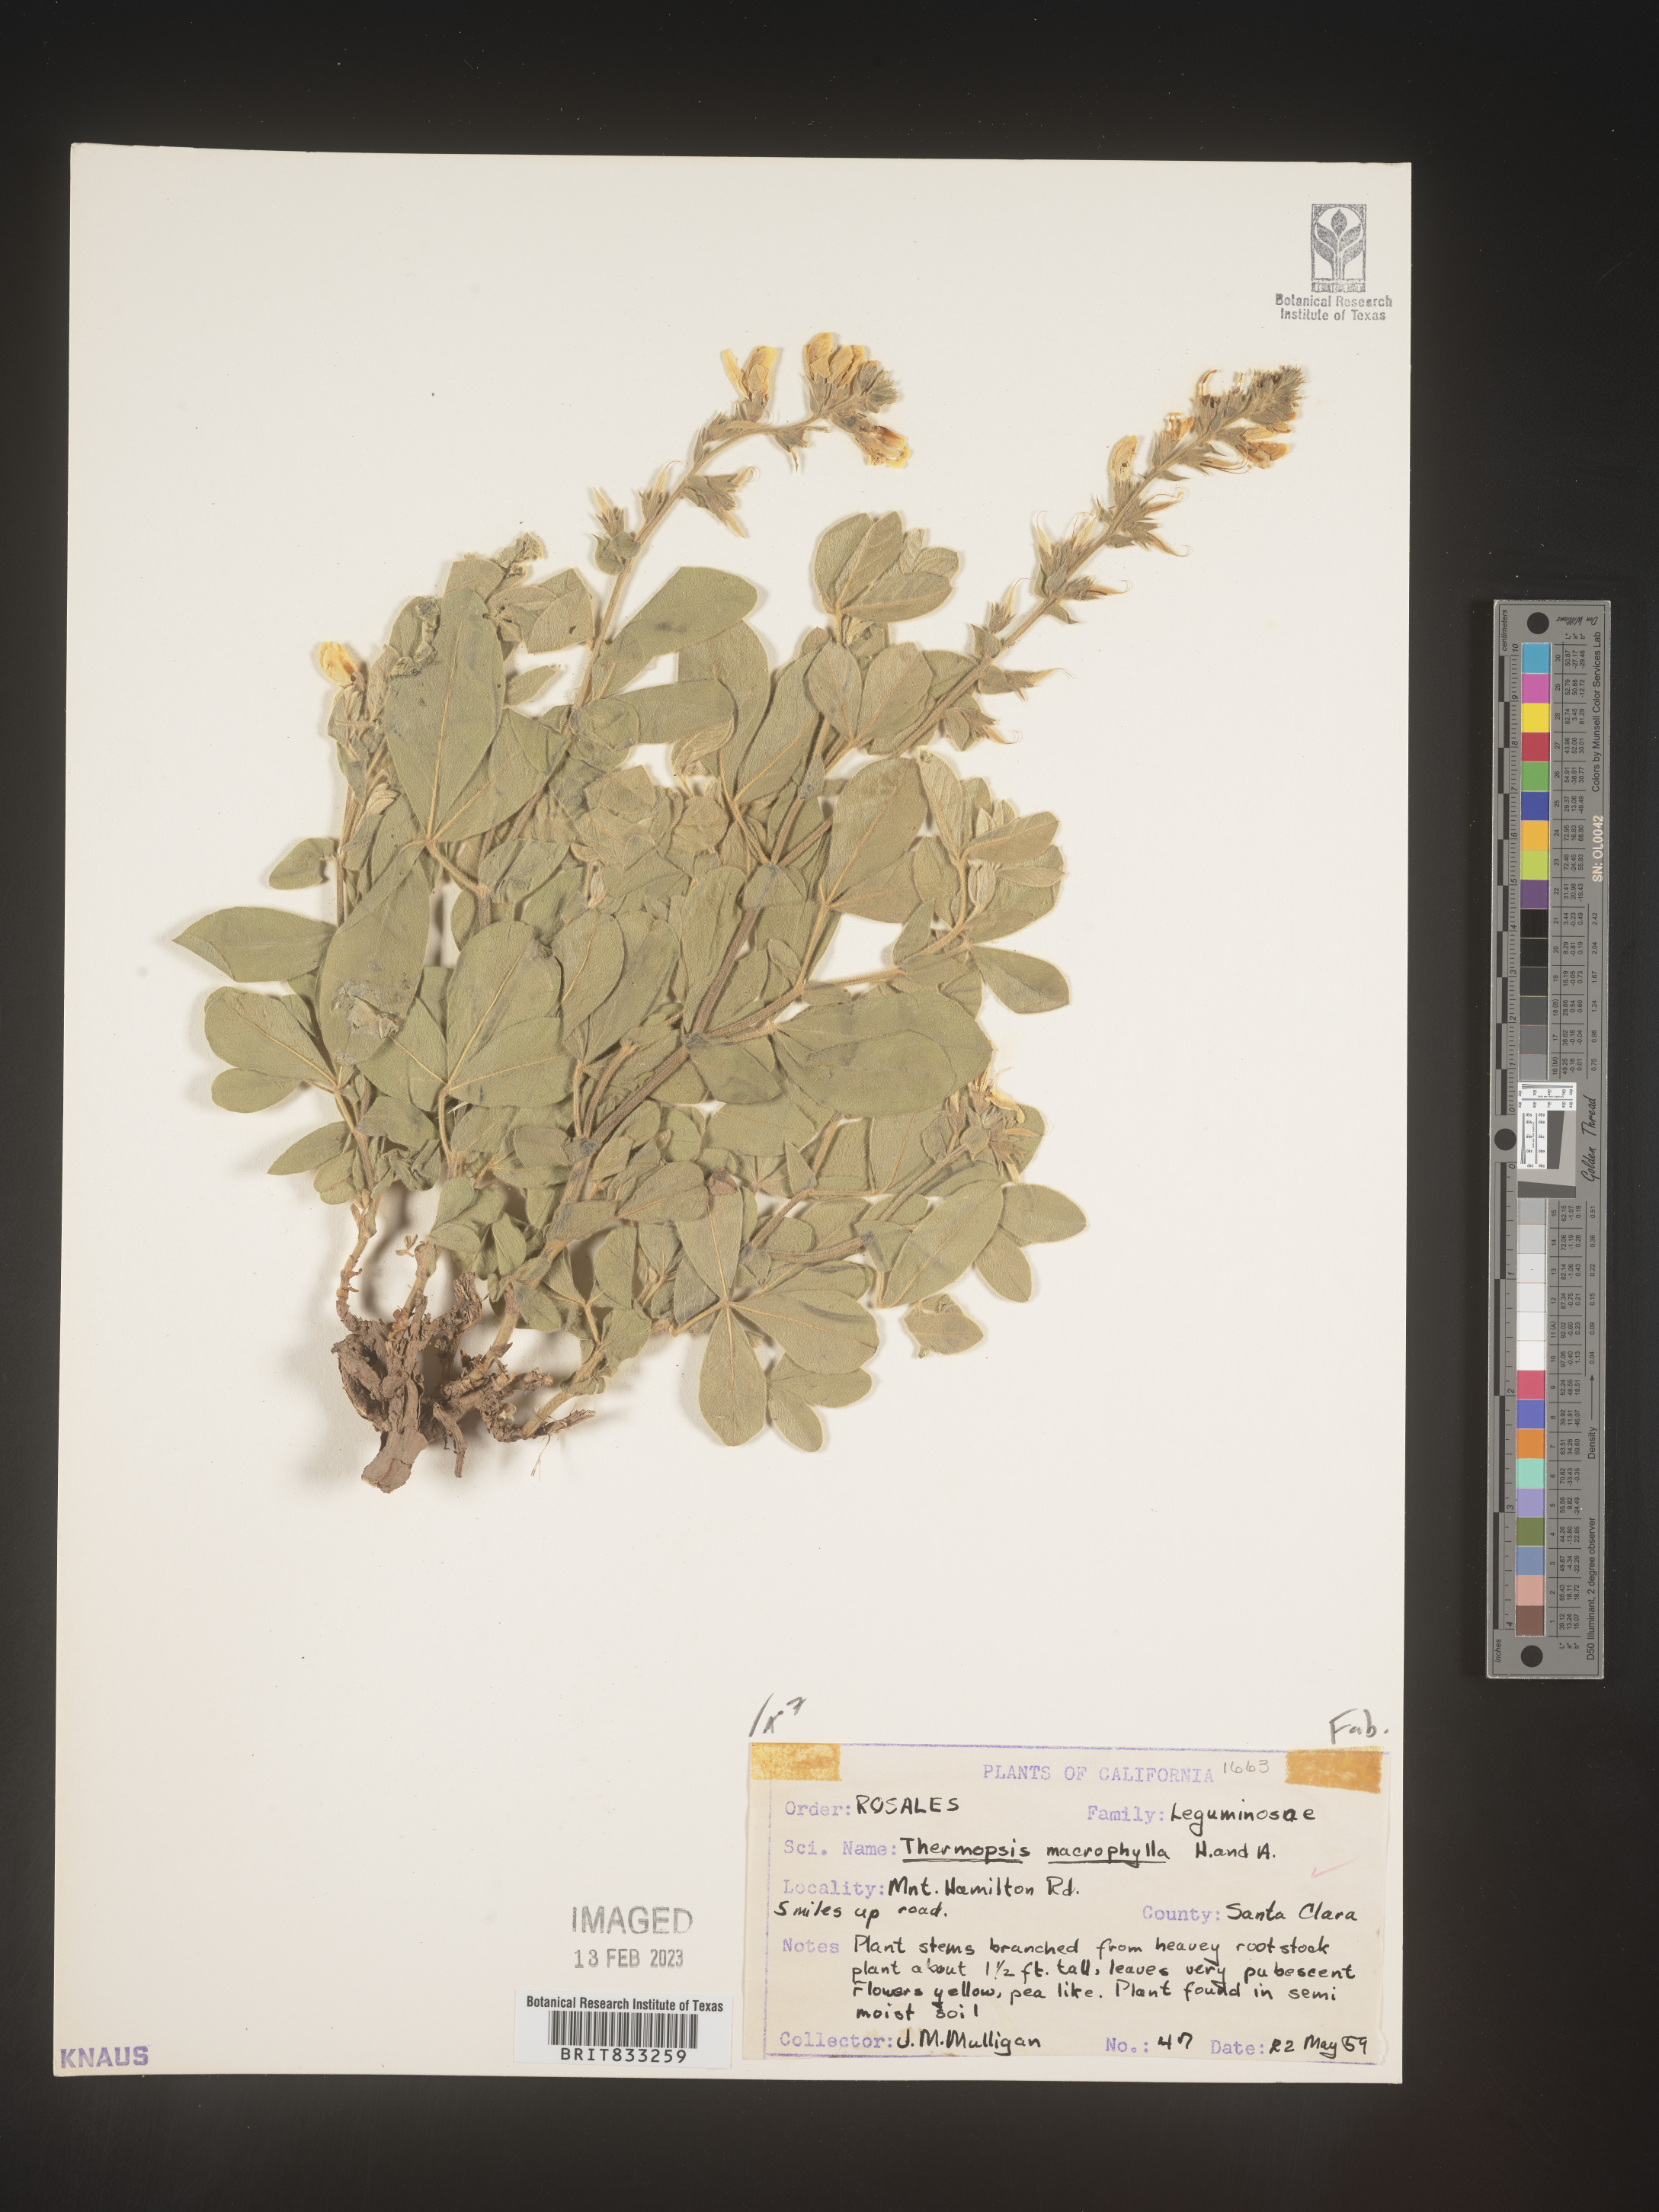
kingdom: Plantae
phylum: Tracheophyta
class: Magnoliopsida
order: Fabales
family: Fabaceae
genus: Thermopsis
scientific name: Thermopsis macrophylla
